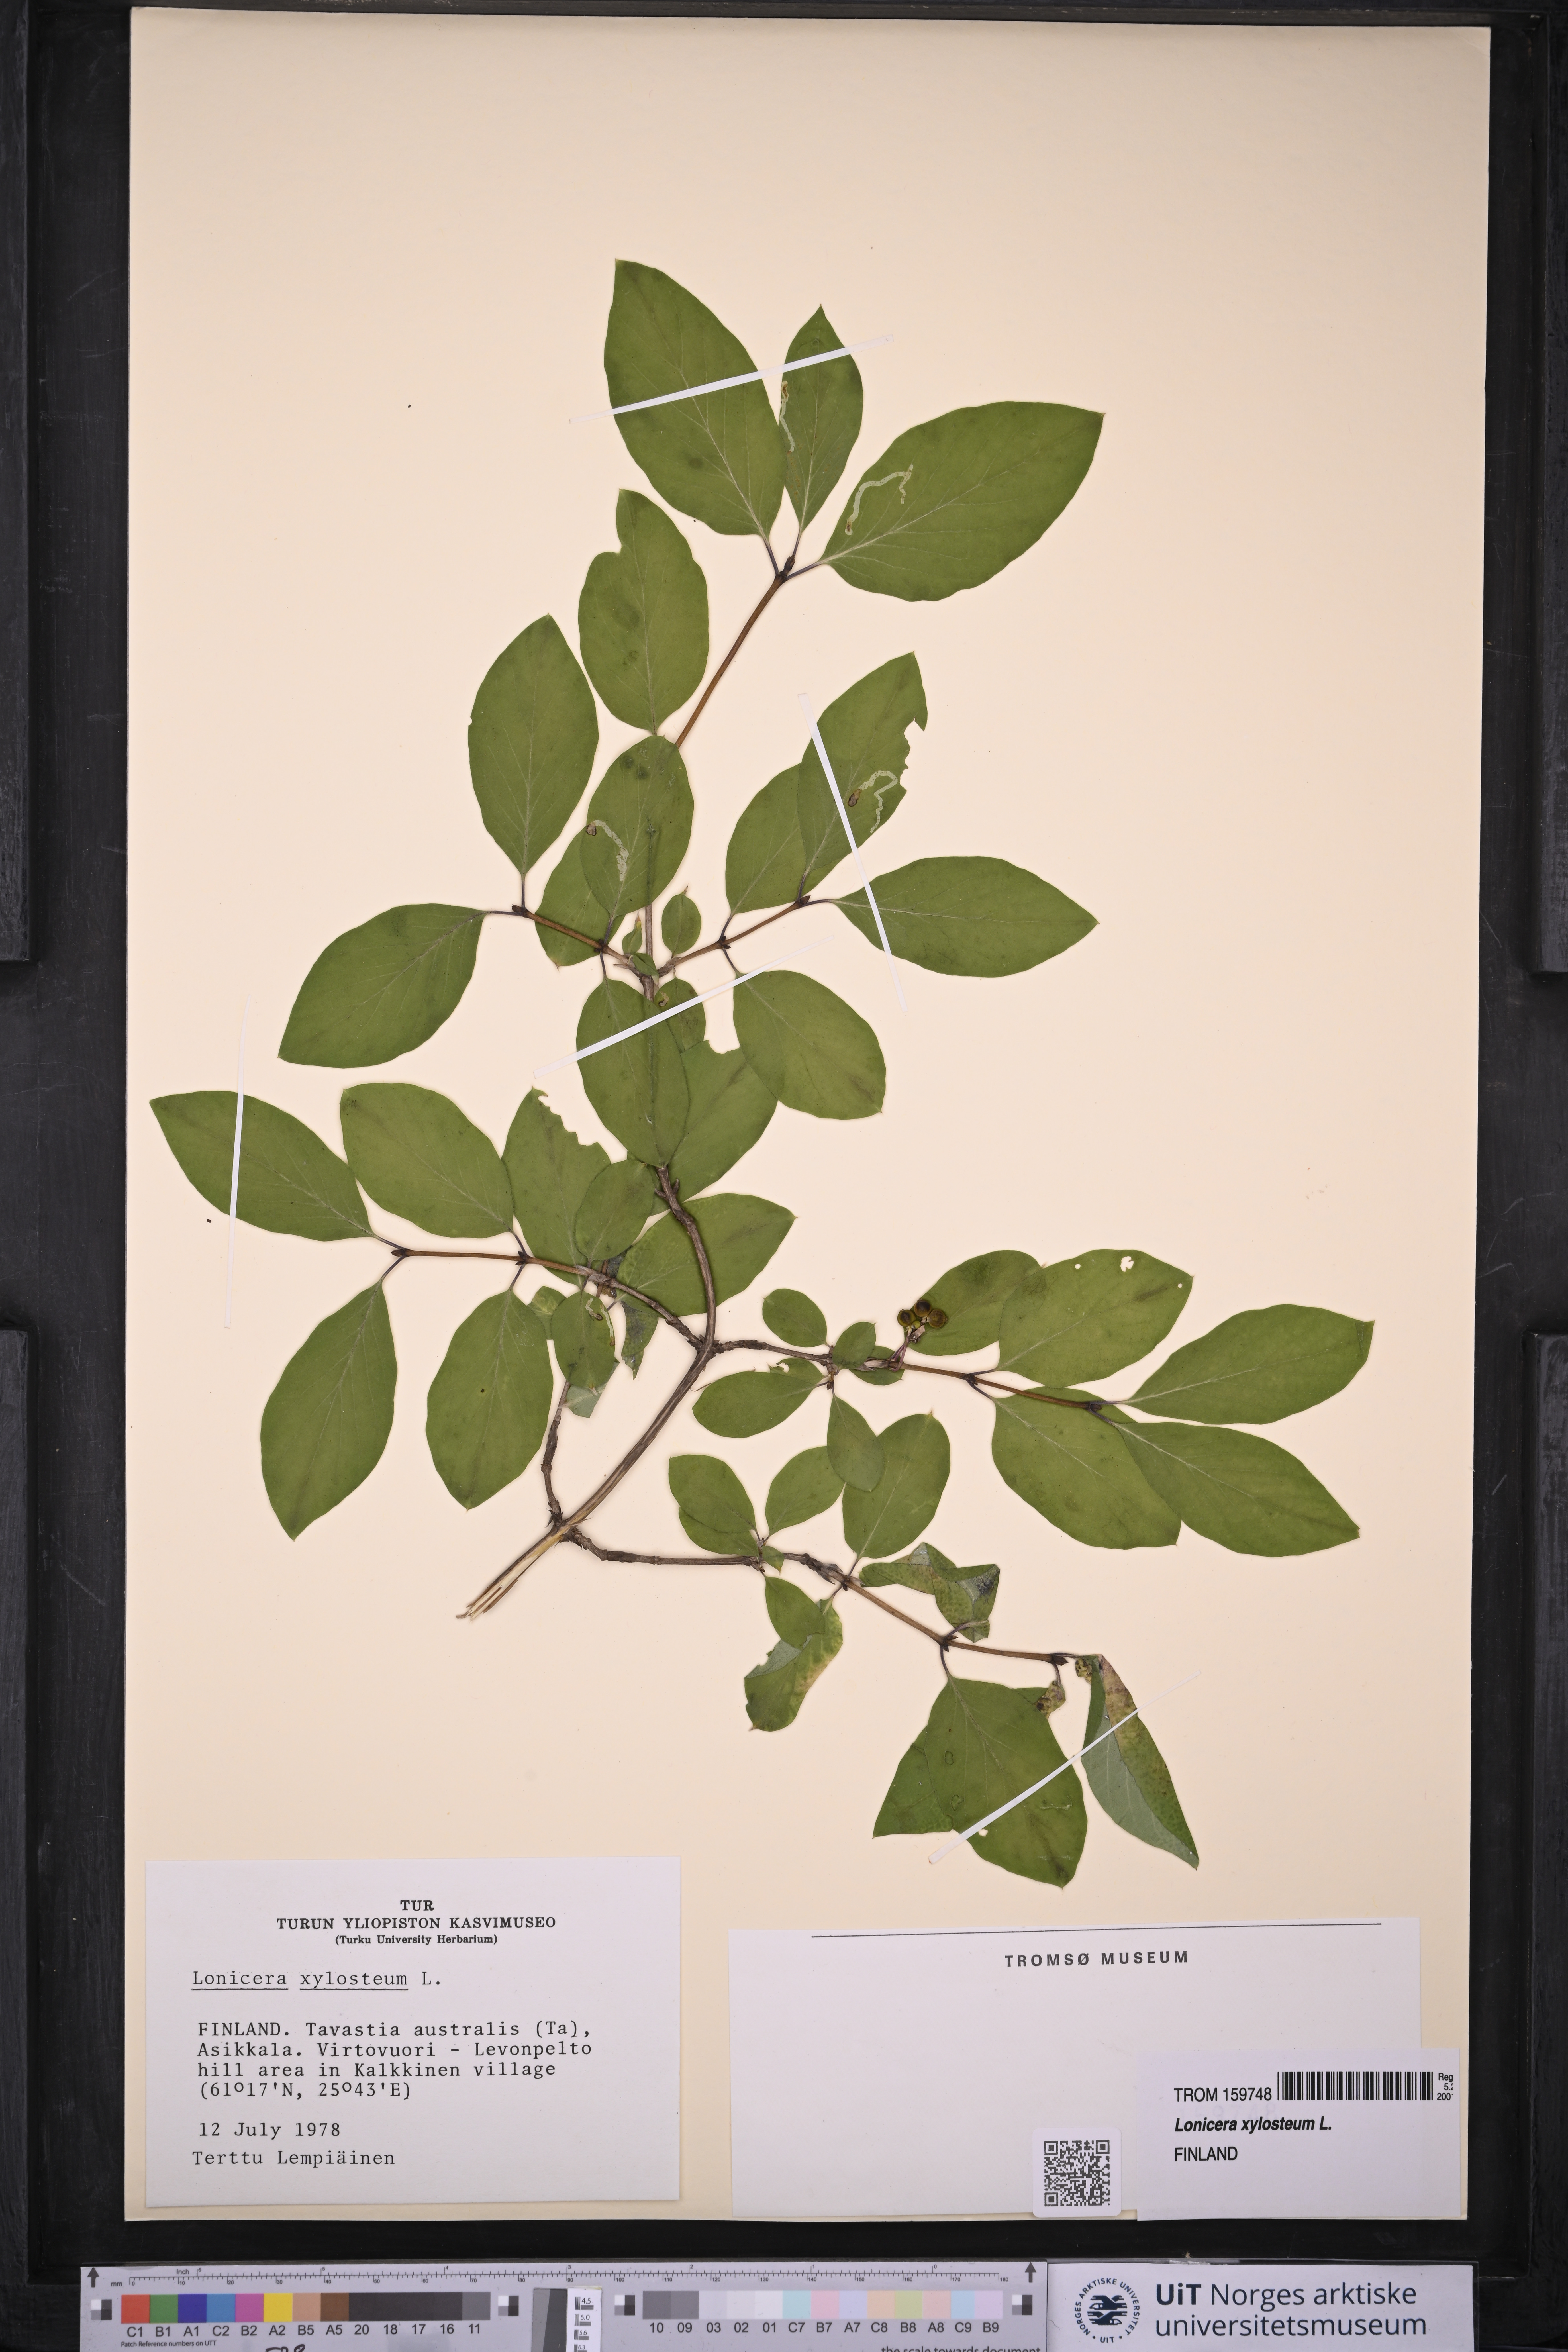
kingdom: Plantae
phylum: Tracheophyta
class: Magnoliopsida
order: Dipsacales
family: Caprifoliaceae
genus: Lonicera
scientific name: Lonicera xylosteum
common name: Fly honeysuckle
